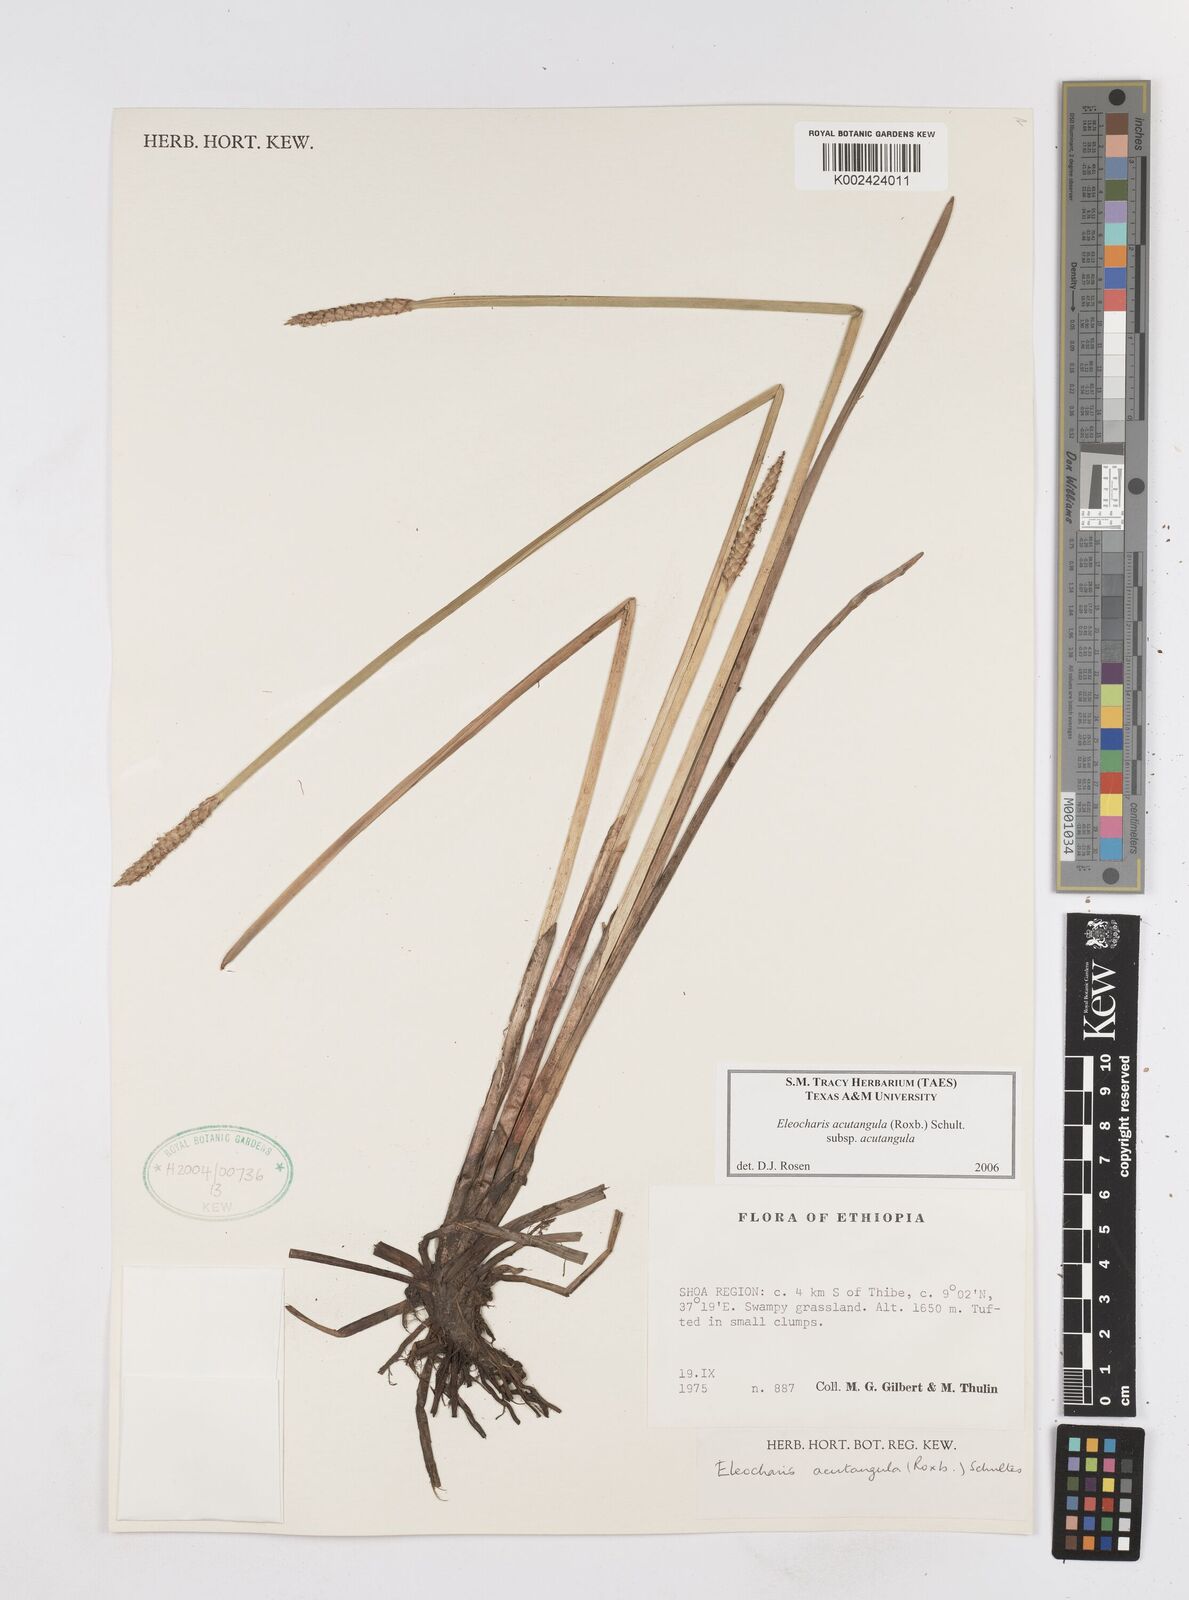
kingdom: Plantae
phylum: Tracheophyta
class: Liliopsida
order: Poales
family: Cyperaceae
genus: Eleocharis
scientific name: Eleocharis acutangula
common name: Acute spikerush
